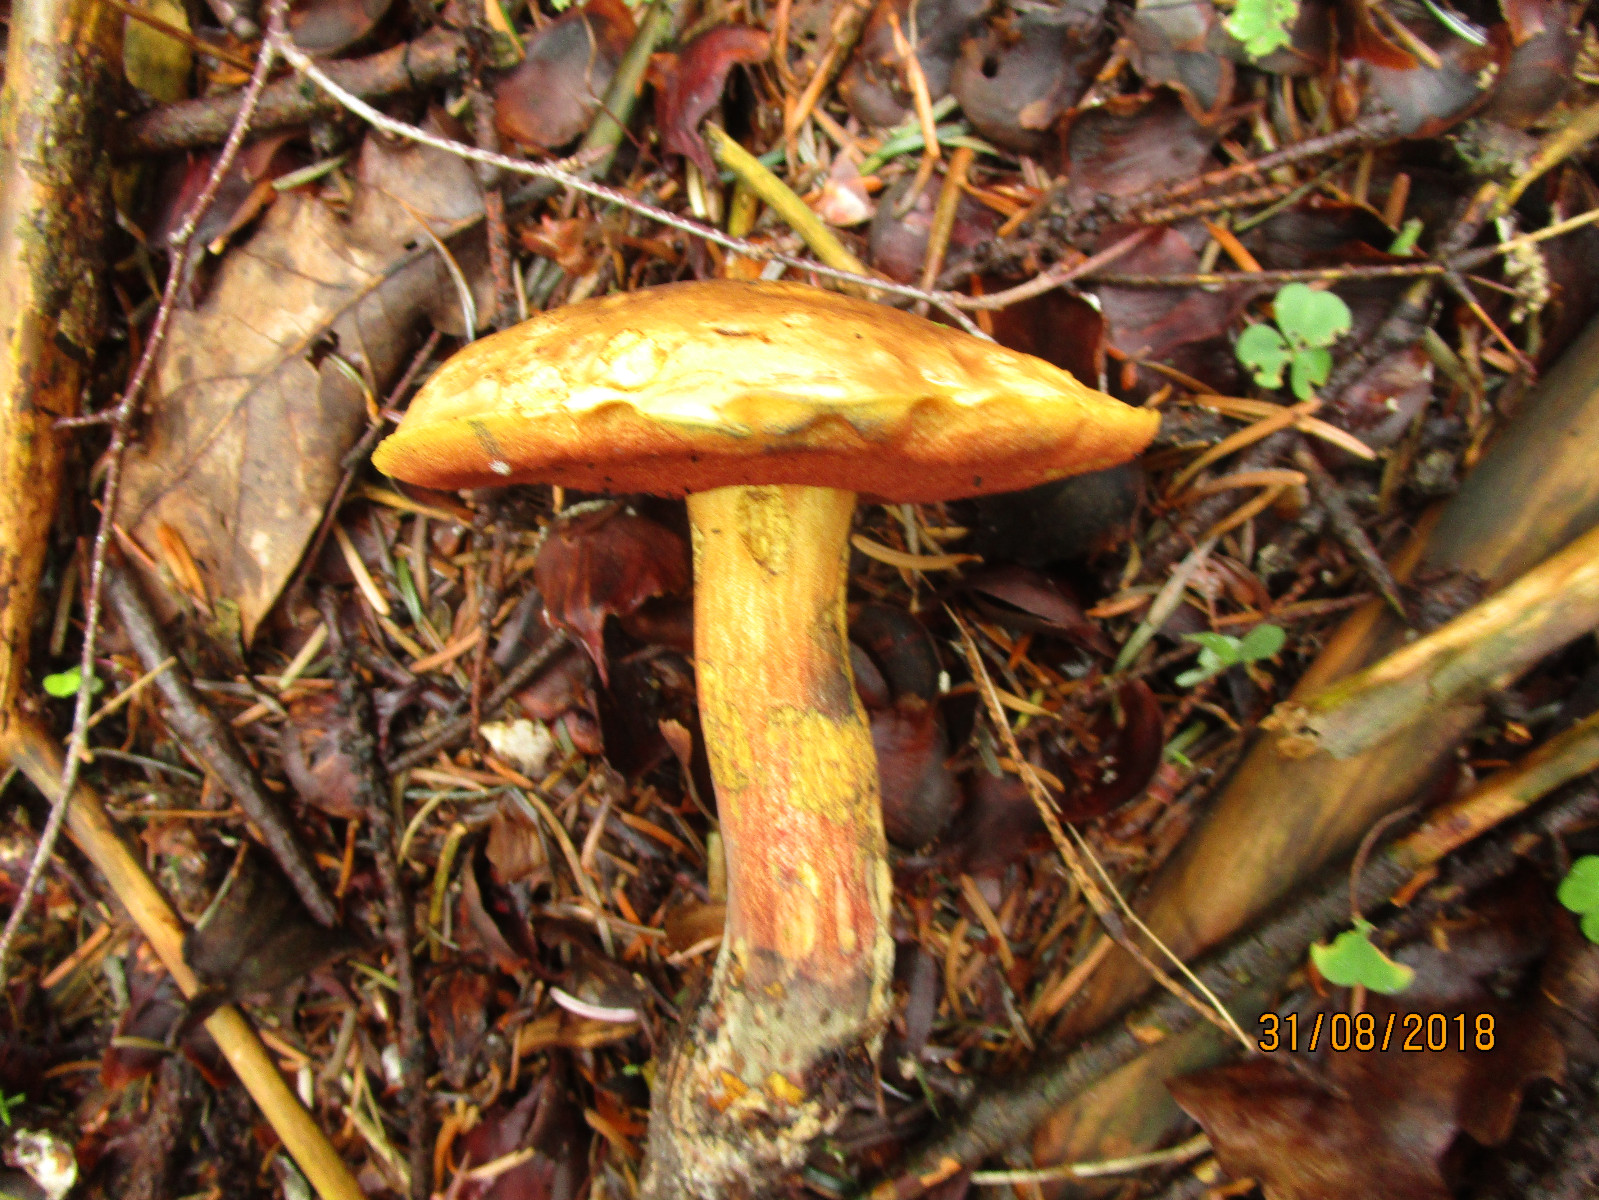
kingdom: Fungi
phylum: Basidiomycota
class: Agaricomycetes
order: Boletales
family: Boletaceae
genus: Neoboletus
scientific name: Neoboletus erythropus
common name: punktstokket indigorørhat
